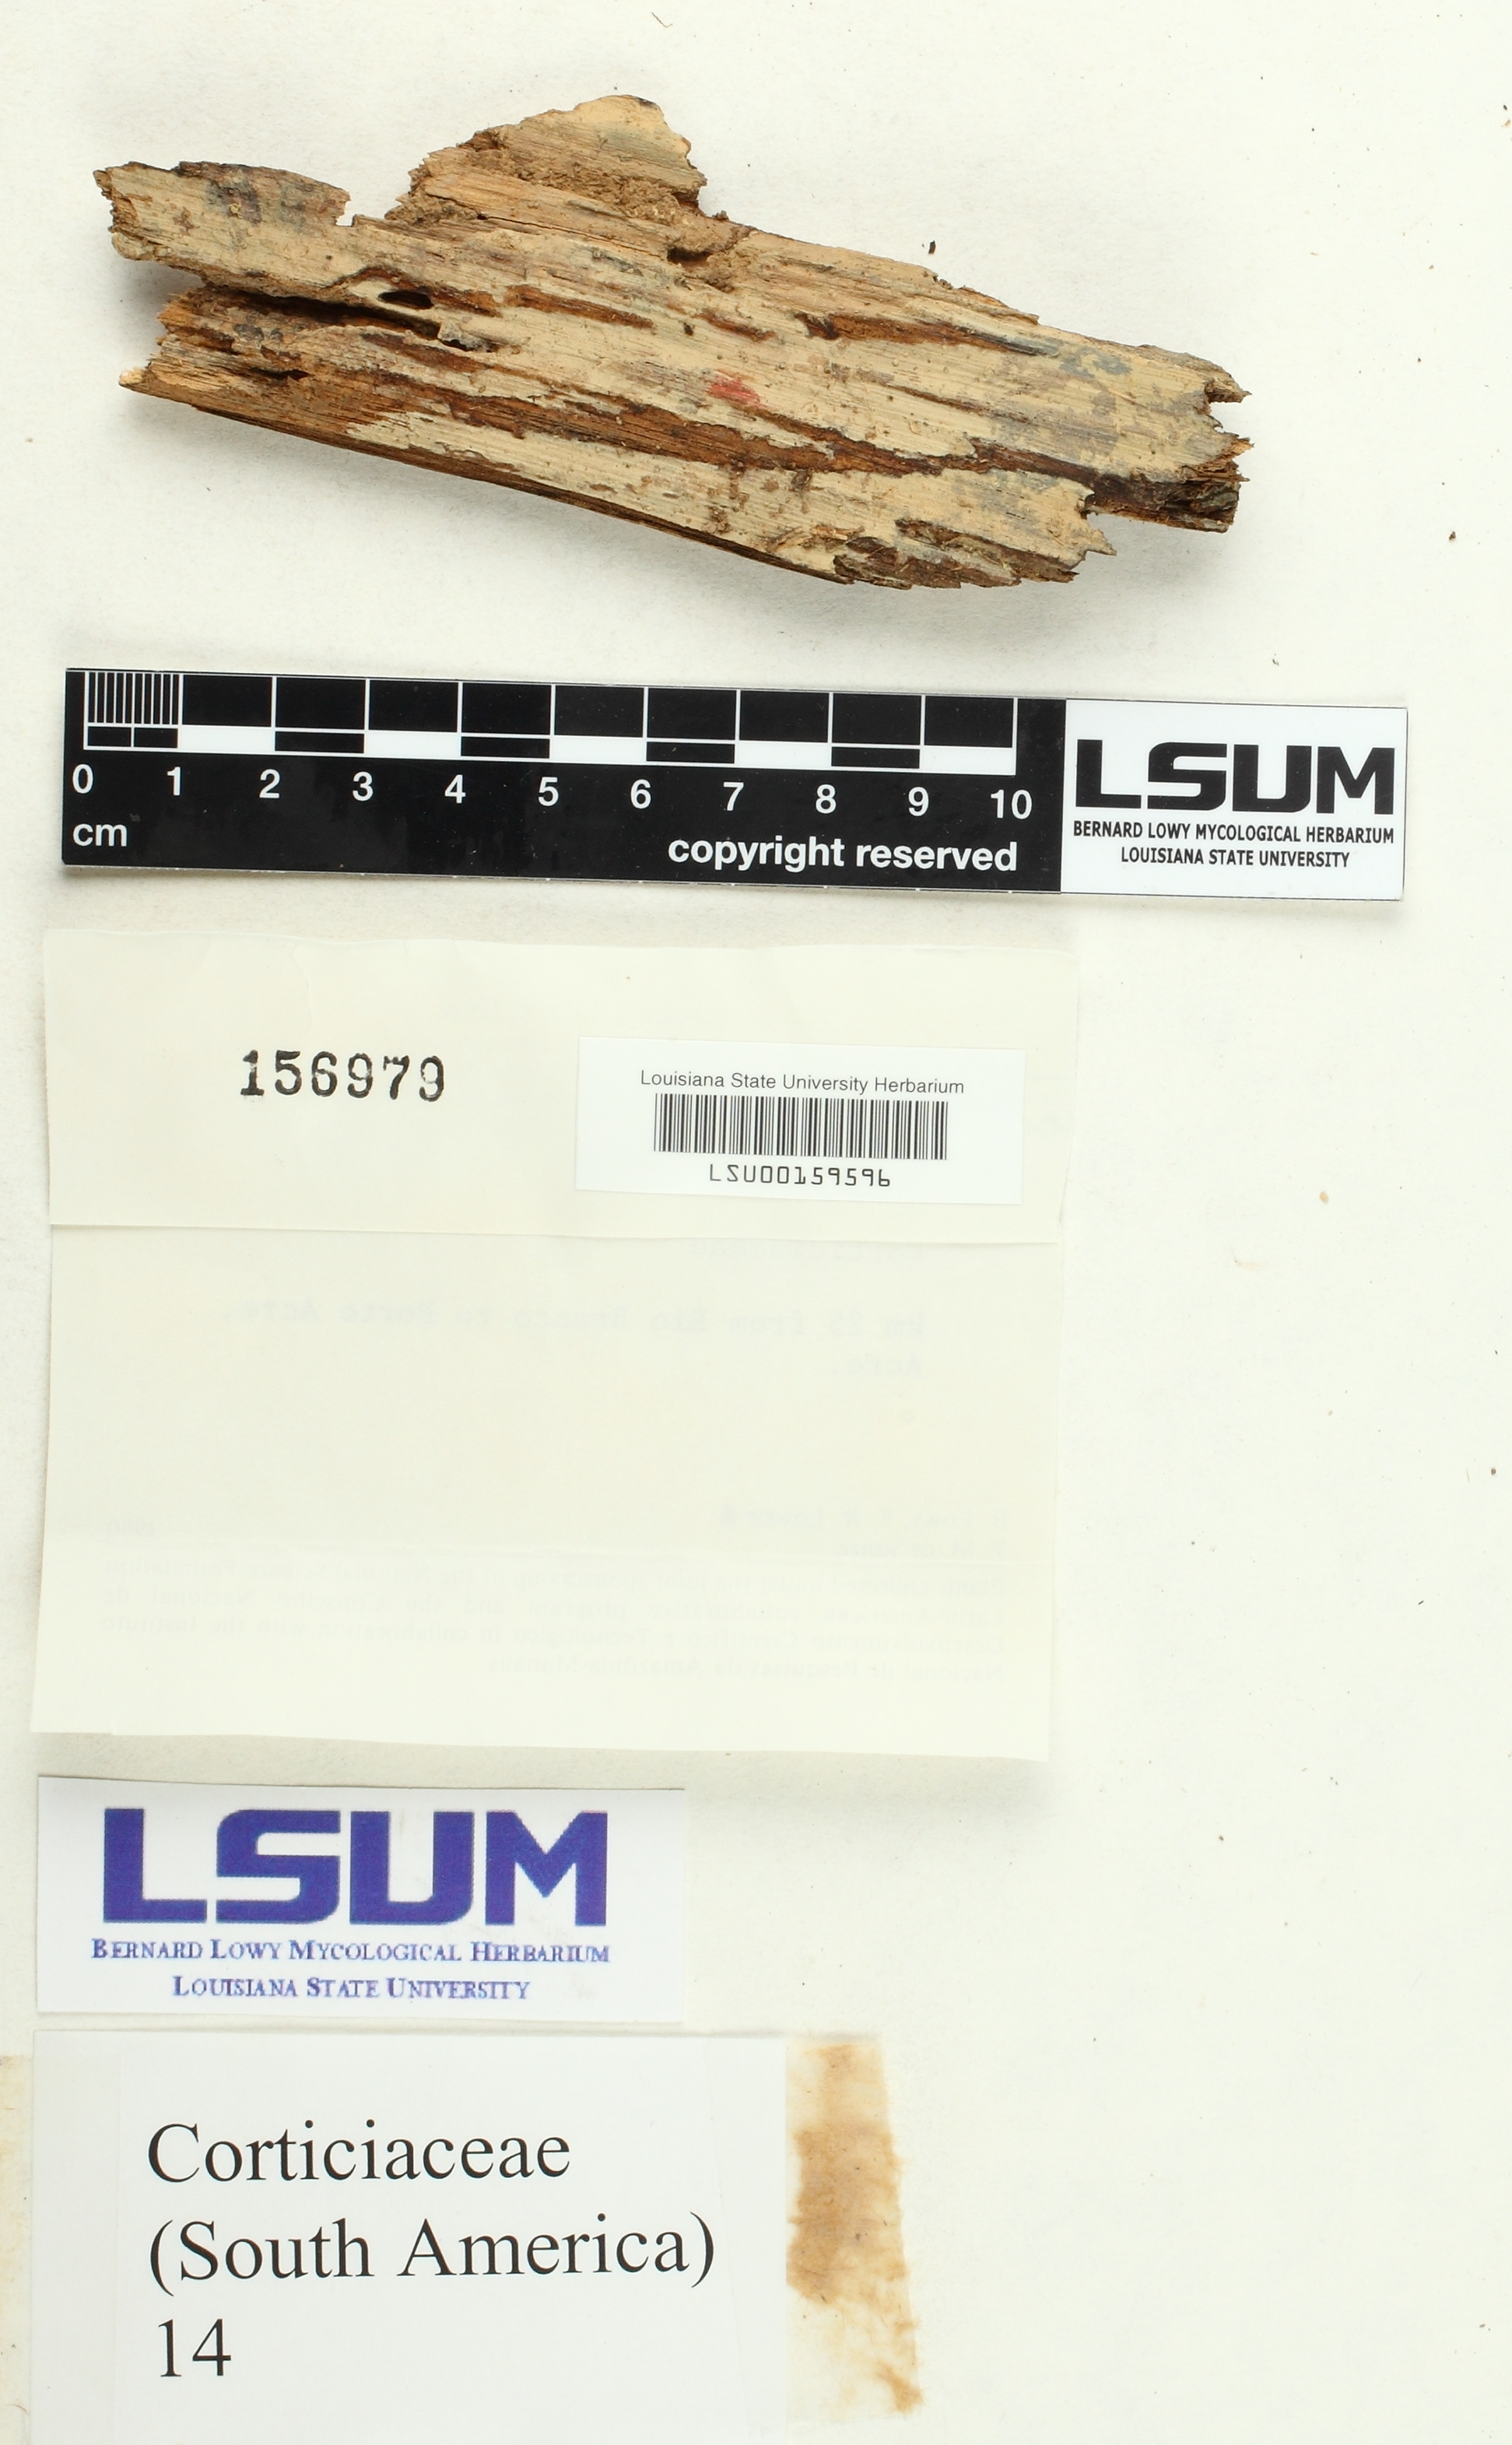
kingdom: Fungi
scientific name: Fungi
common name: Fungi
